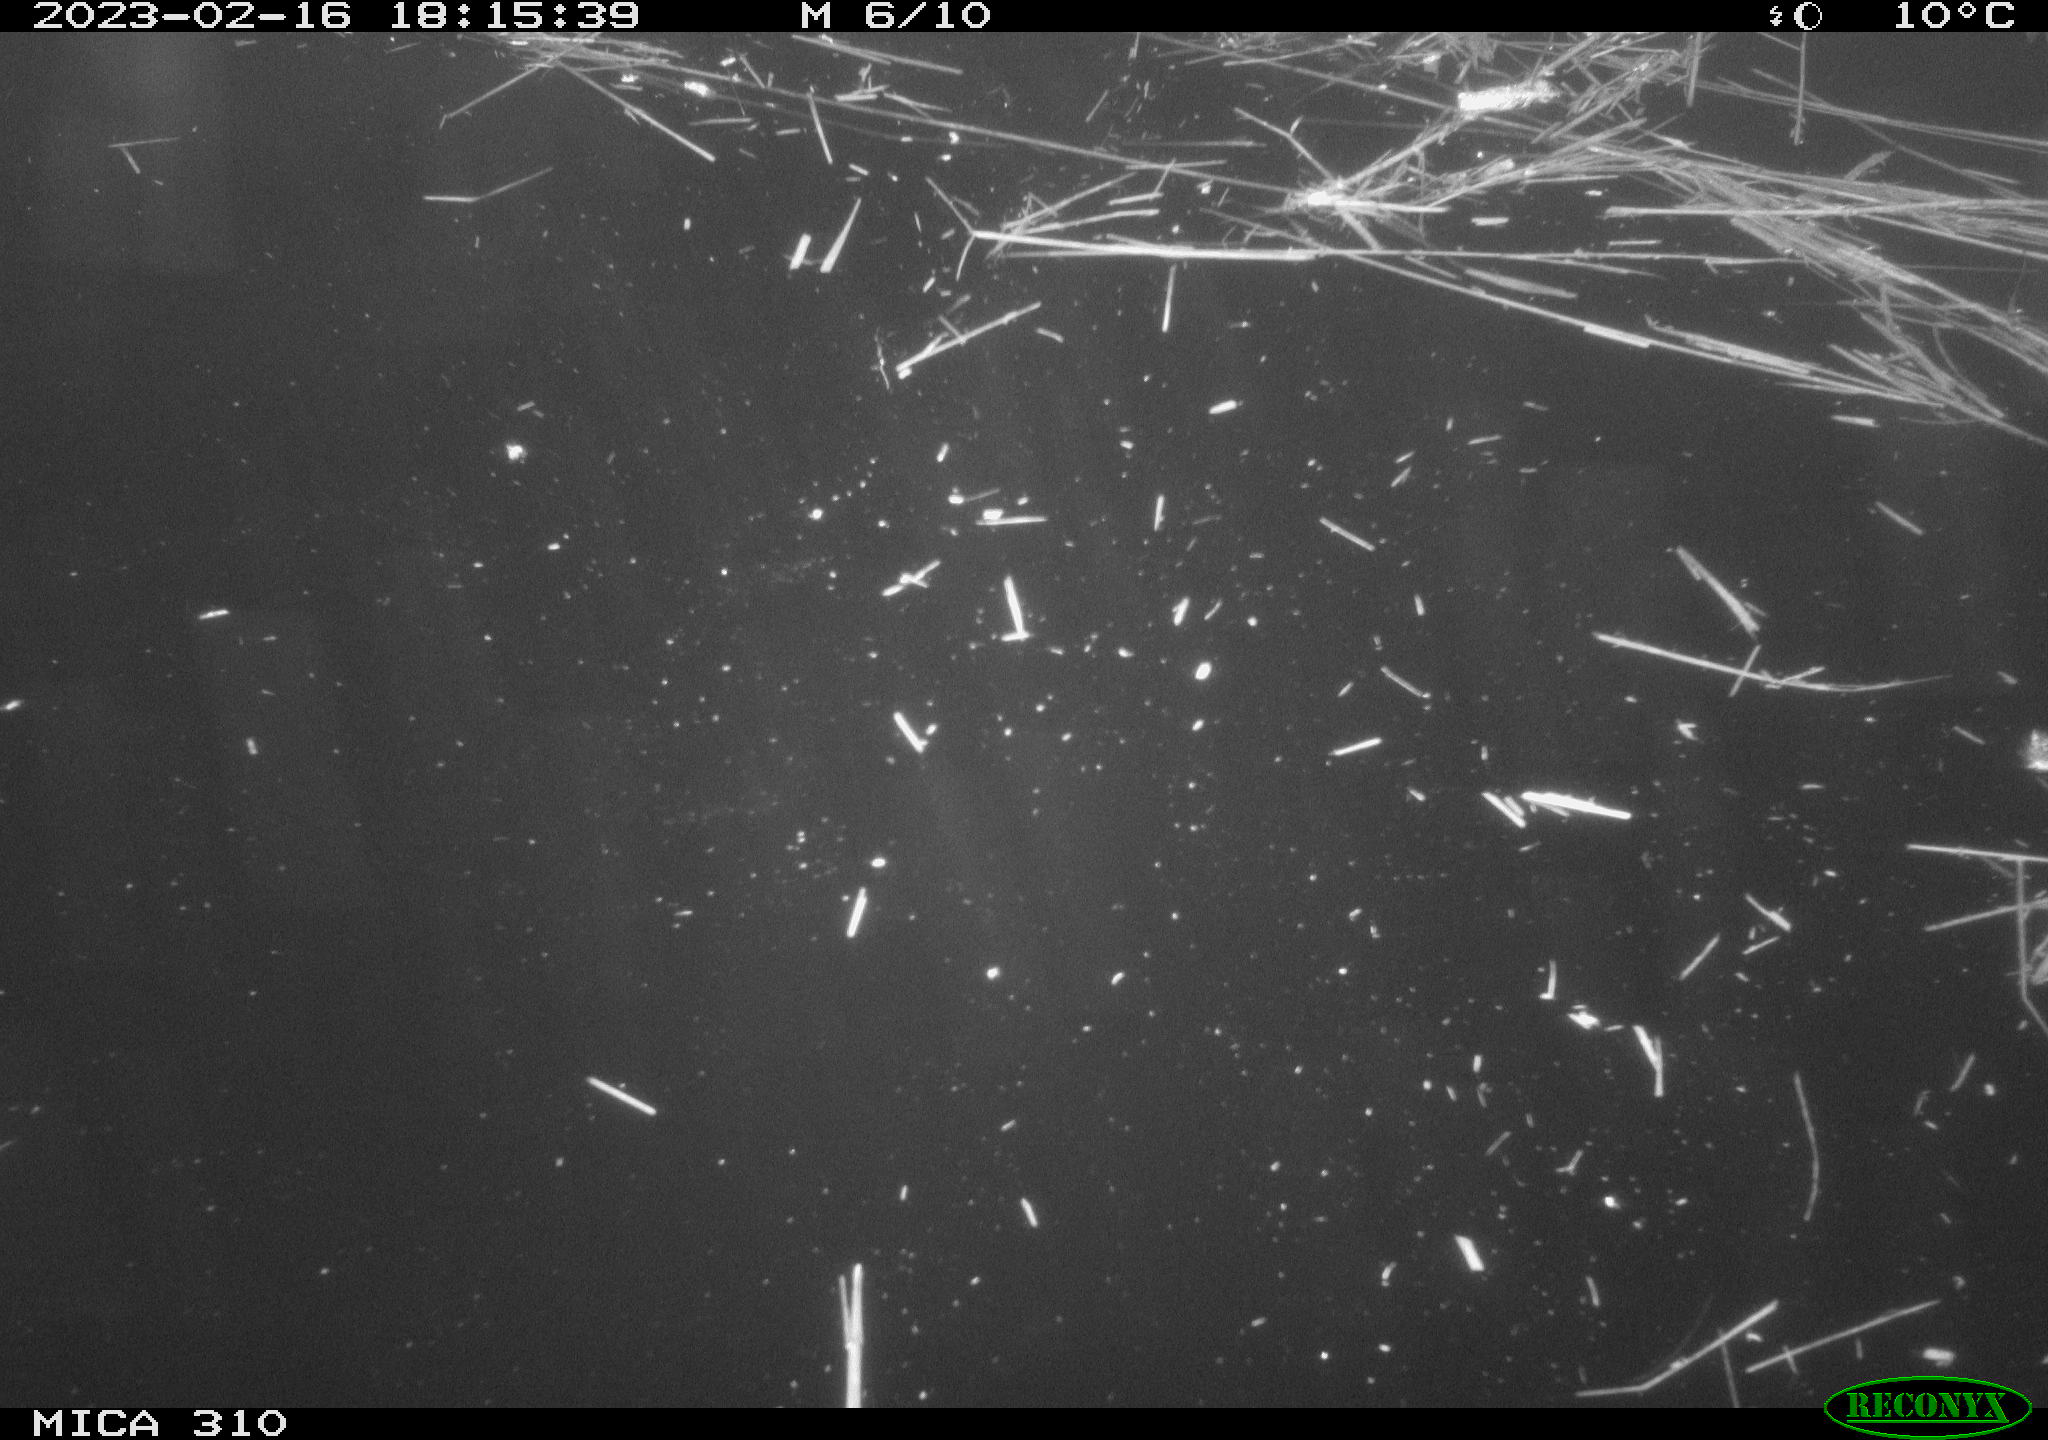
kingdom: Animalia
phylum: Chordata
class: Aves
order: Anseriformes
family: Anatidae
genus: Anas
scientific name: Anas
